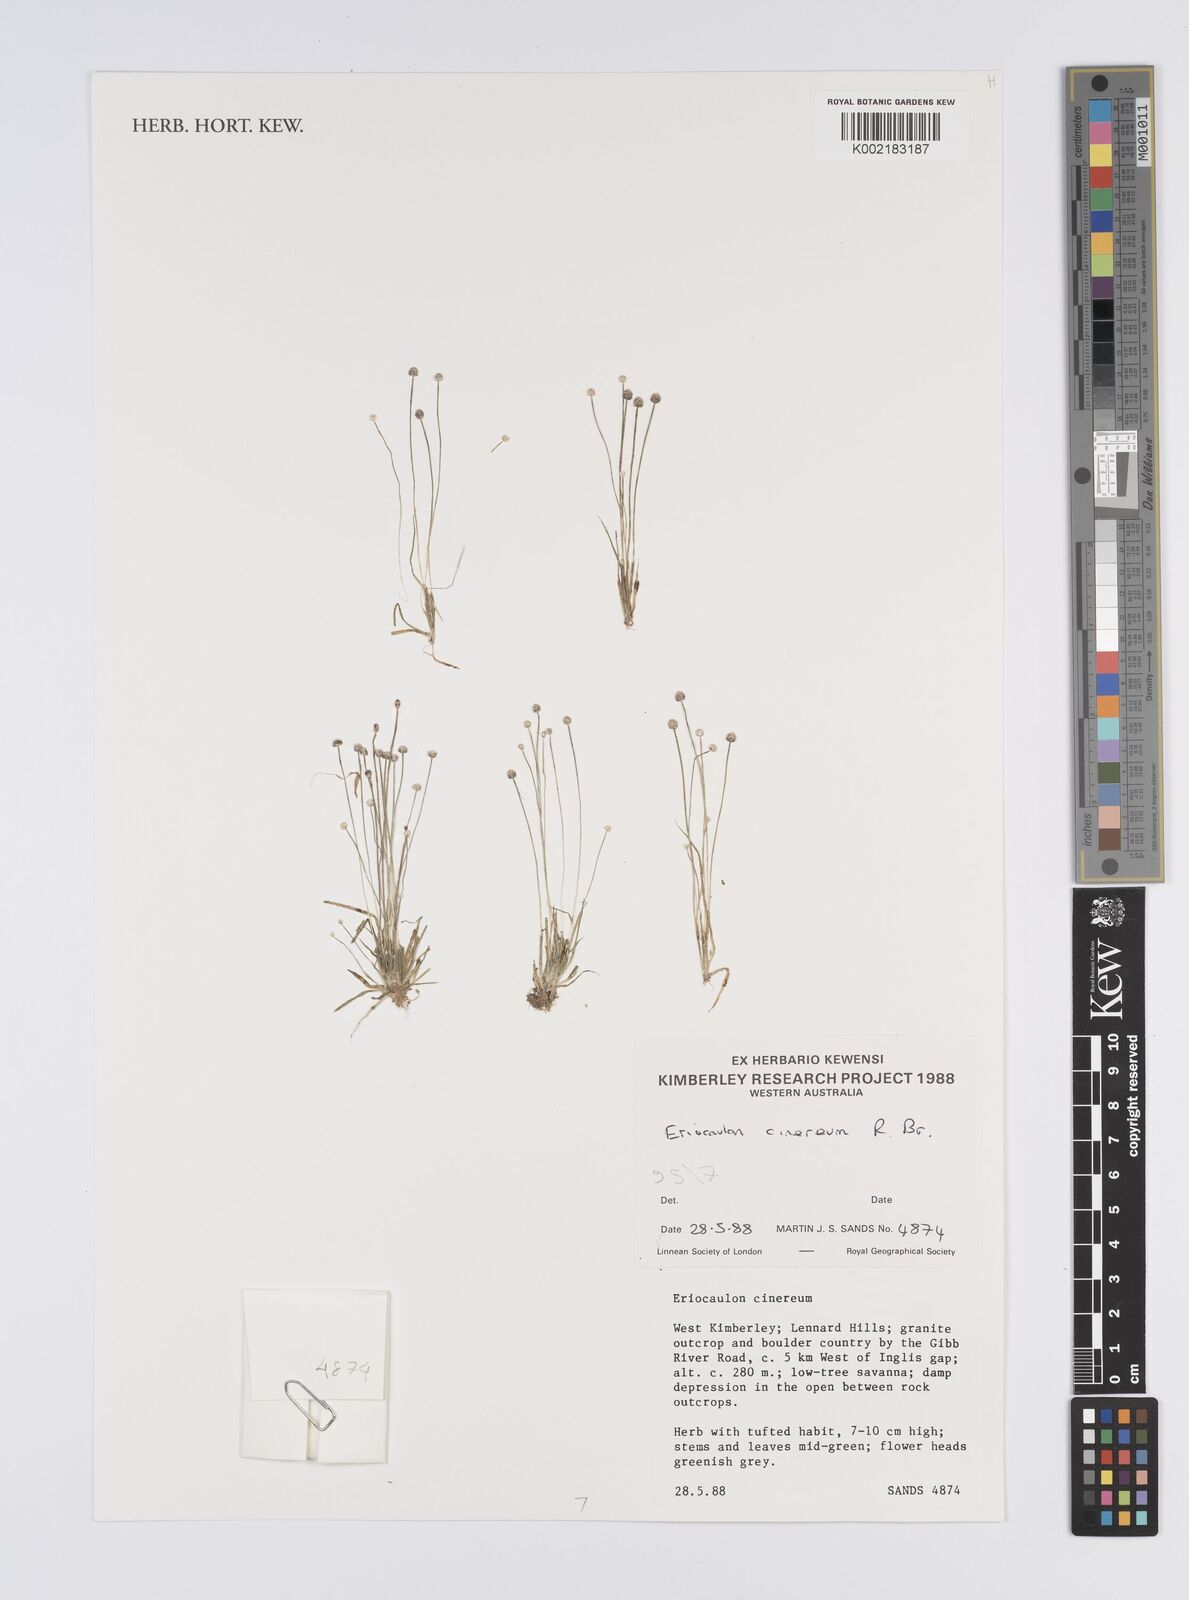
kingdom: Plantae
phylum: Tracheophyta
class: Liliopsida
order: Poales
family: Eriocaulaceae
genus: Eriocaulon
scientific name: Eriocaulon cinereum
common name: Ashy pipewort
